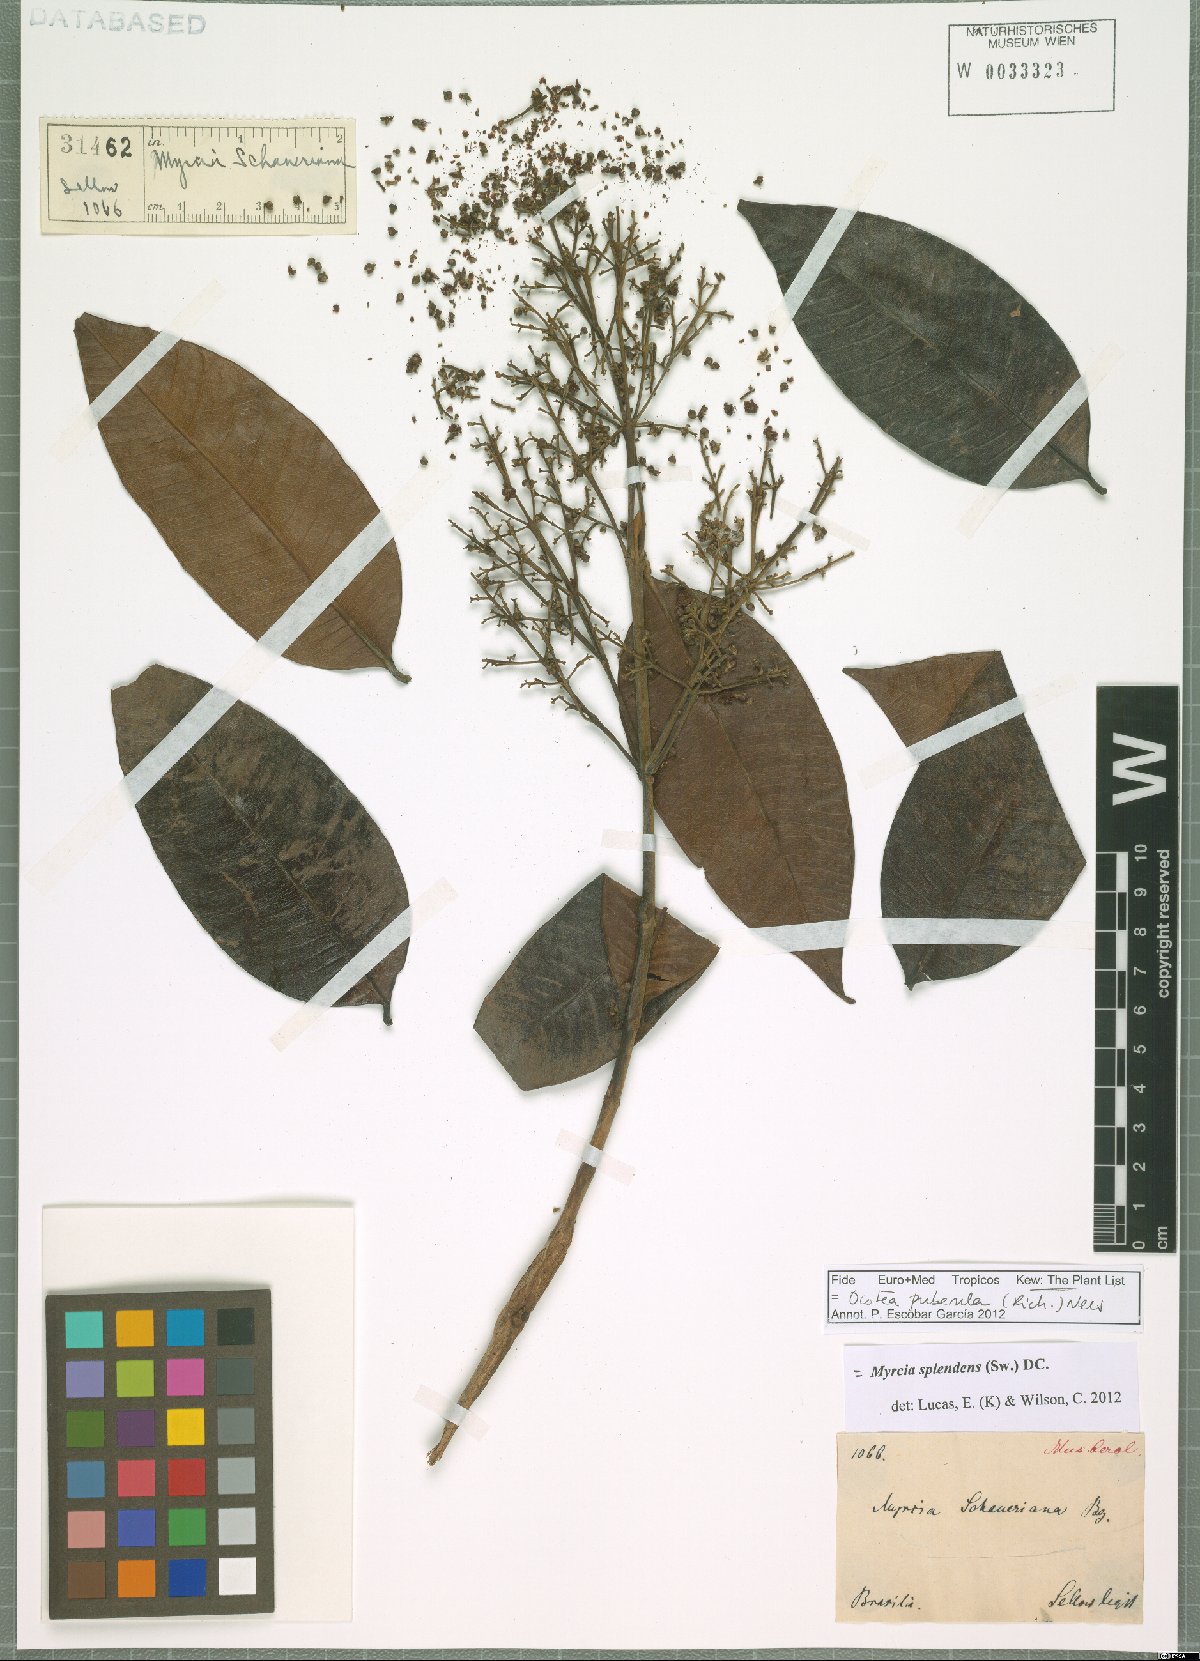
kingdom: Plantae
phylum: Tracheophyta
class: Magnoliopsida
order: Laurales
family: Lauraceae
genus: Ocotea
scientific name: Ocotea puberula
